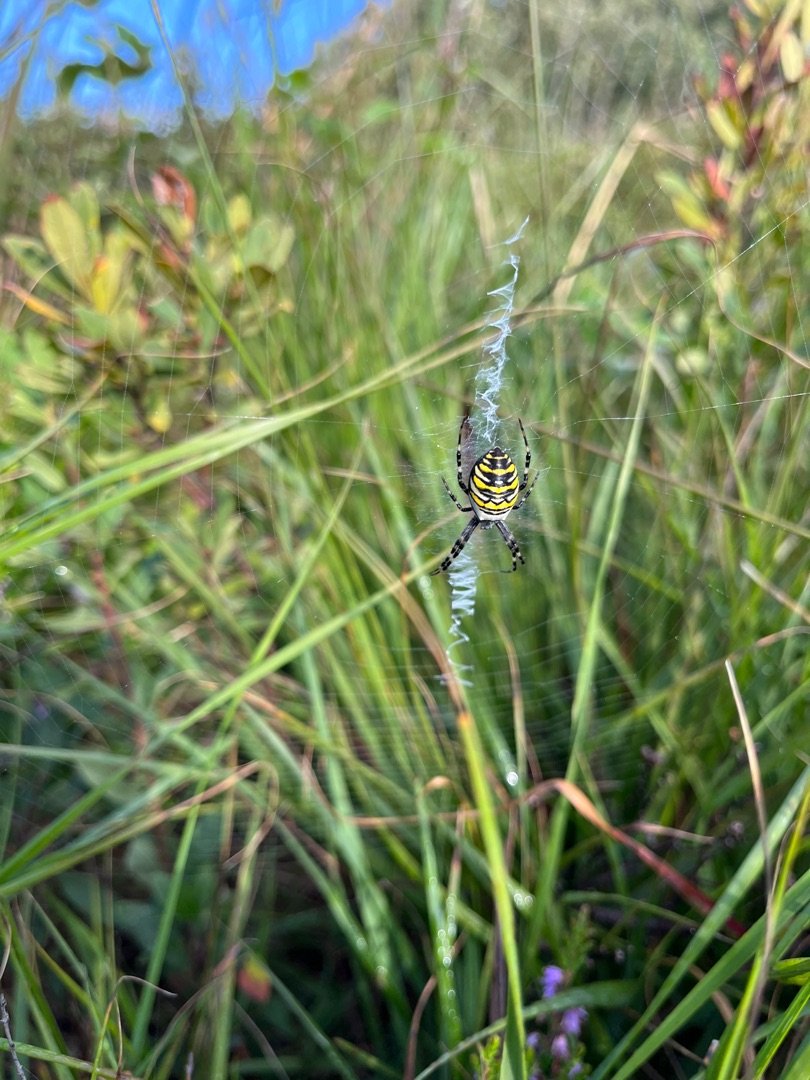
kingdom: Animalia
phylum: Arthropoda
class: Arachnida
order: Araneae
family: Araneidae
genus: Argiope
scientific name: Argiope bruennichi
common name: Hvepseedderkop
